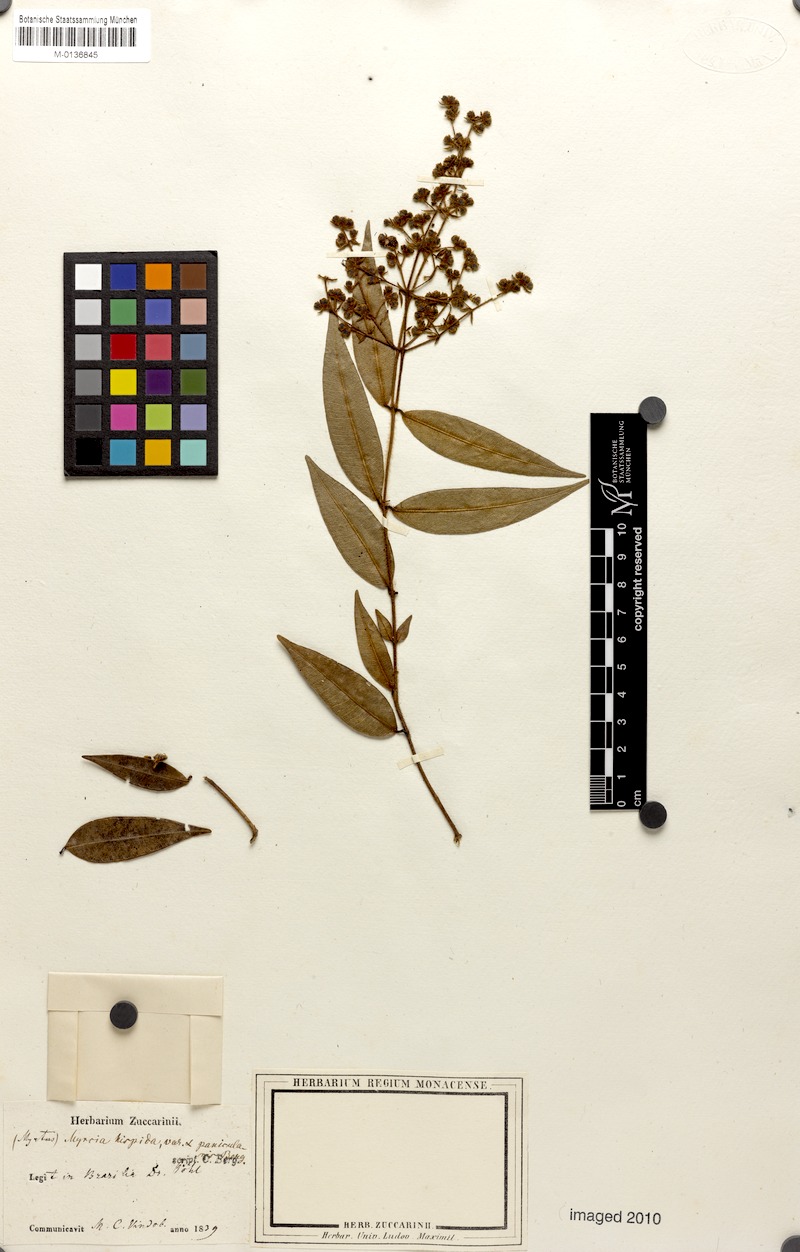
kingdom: Plantae
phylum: Tracheophyta
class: Magnoliopsida
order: Myrtales
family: Myrtaceae
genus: Myrcia
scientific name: Myrcia eriopus
